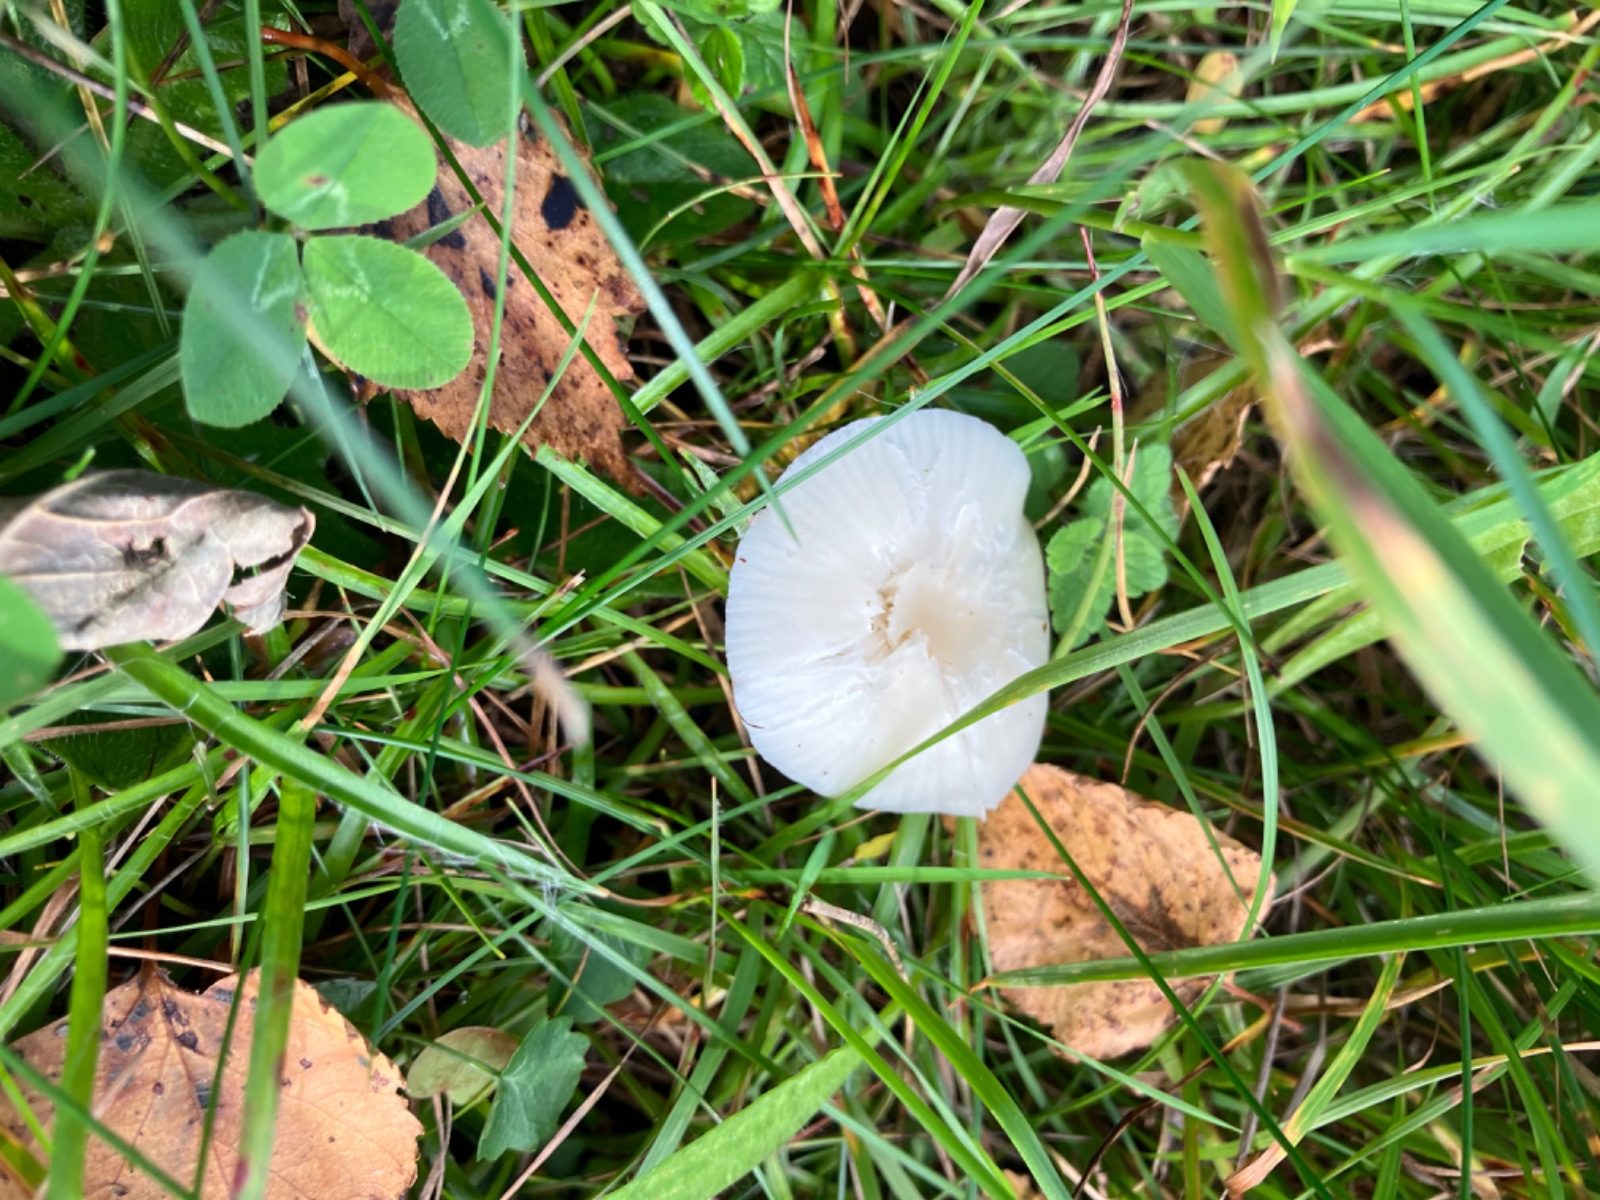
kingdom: Fungi
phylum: Basidiomycota
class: Agaricomycetes
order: Agaricales
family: Hygrophoraceae
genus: Cuphophyllus
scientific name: Cuphophyllus virgineus
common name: snehvid vokshat
